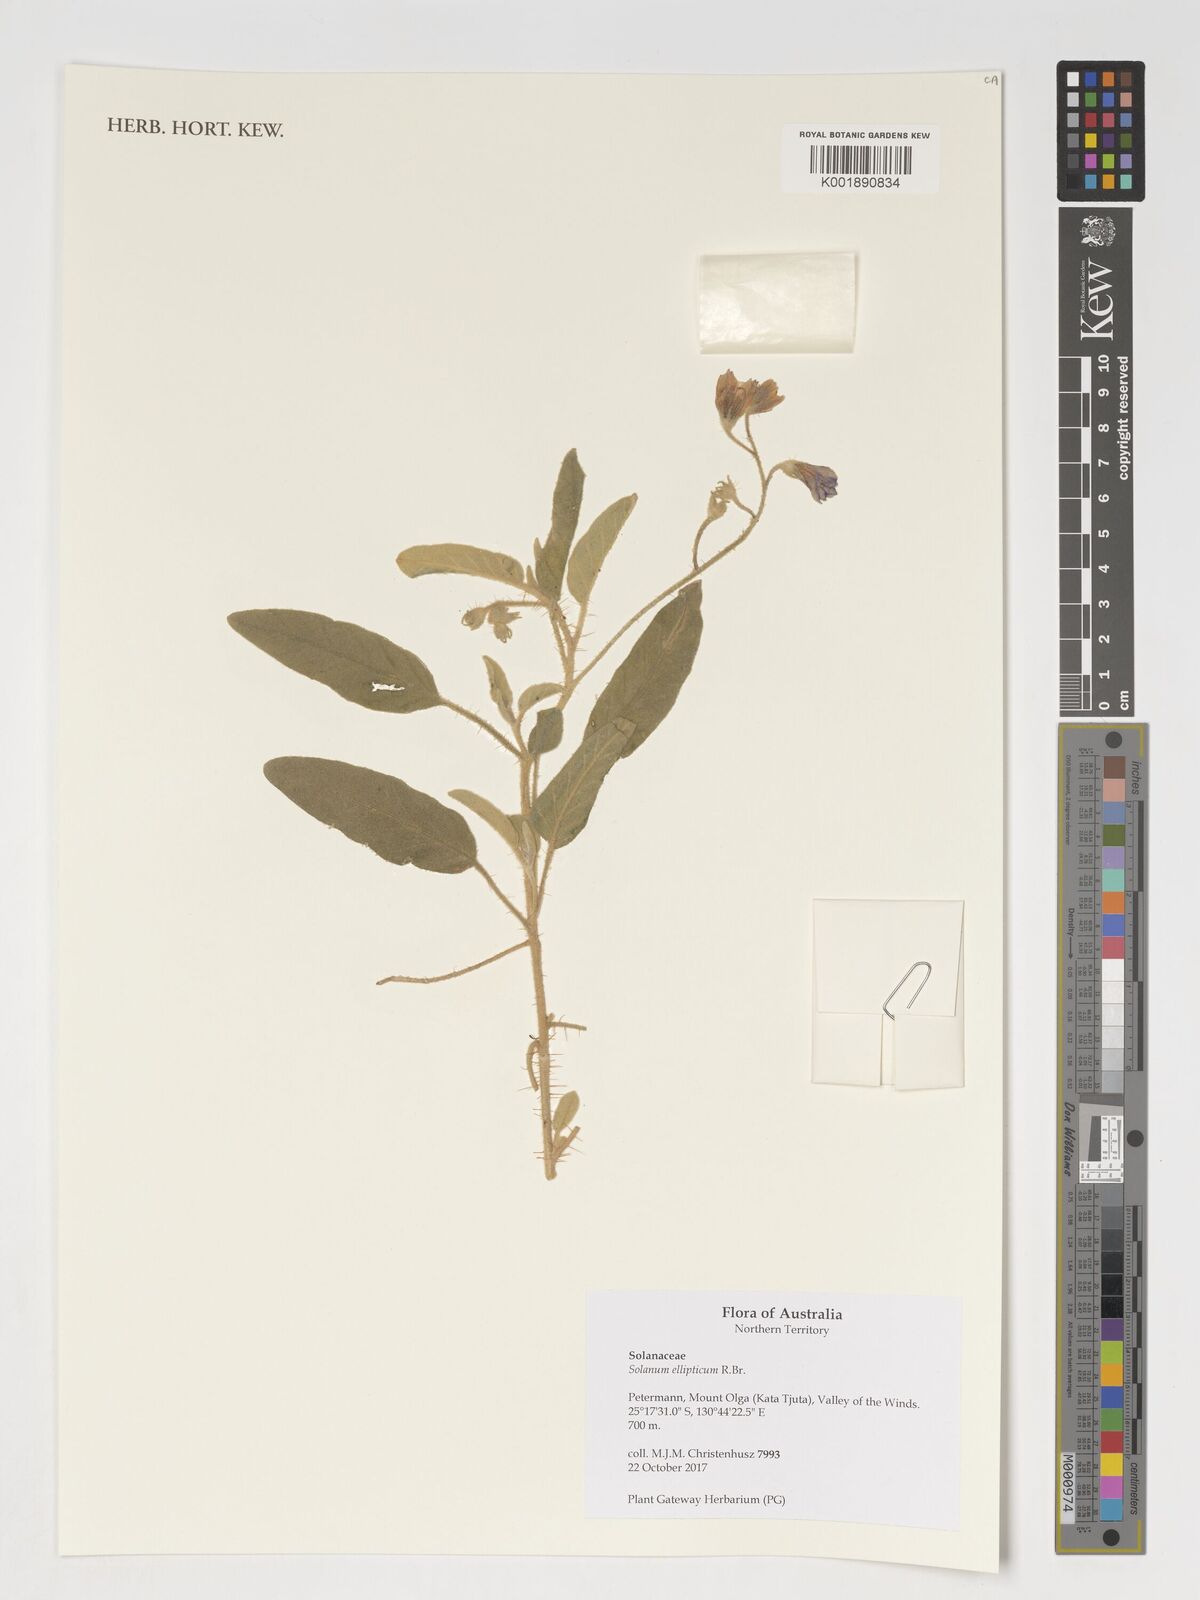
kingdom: Plantae
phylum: Tracheophyta
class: Magnoliopsida
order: Solanales
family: Solanaceae
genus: Solanum
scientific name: Solanum ellipticum
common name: Potato-bush
